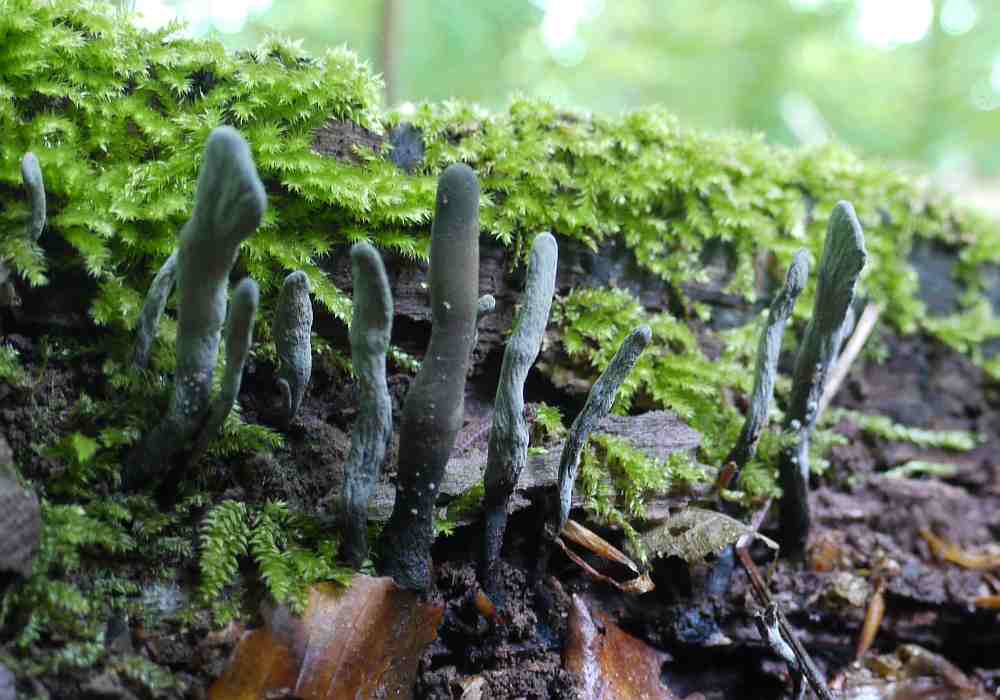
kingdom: Fungi
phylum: Ascomycota
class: Sordariomycetes
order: Xylariales
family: Xylariaceae
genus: Xylaria
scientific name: Xylaria longipes
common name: slank stødsvamp
